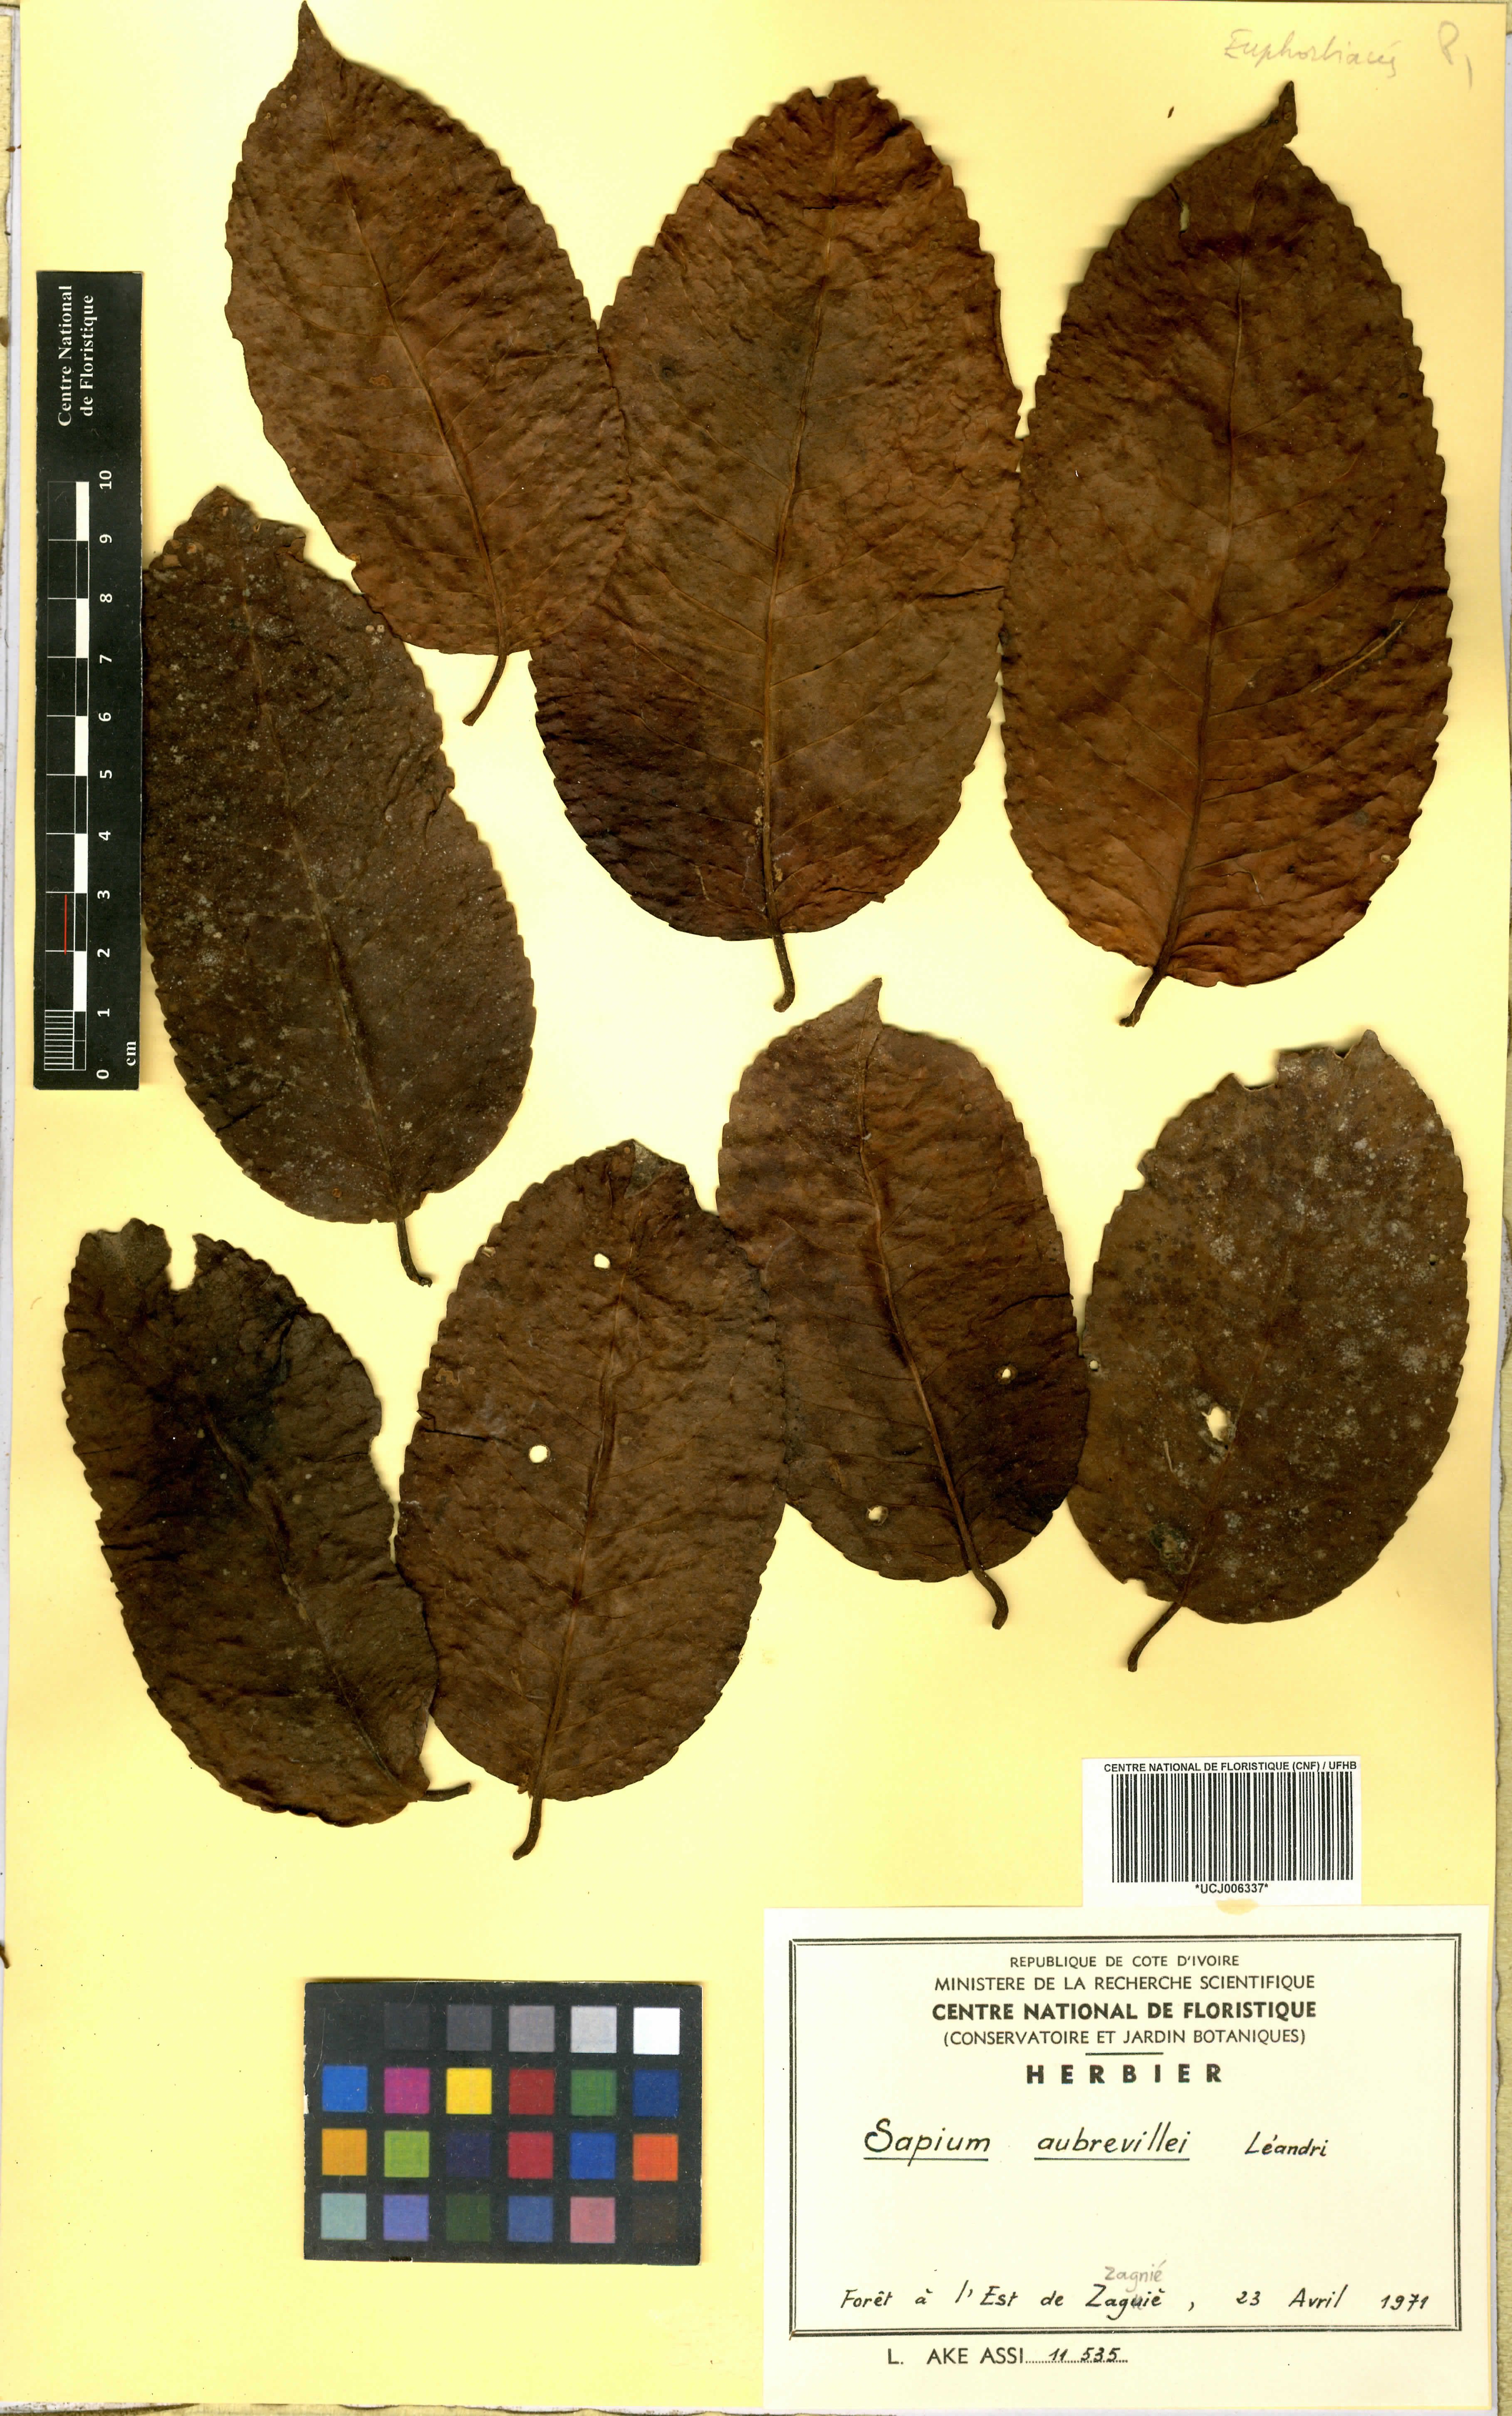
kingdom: Plantae
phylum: Tracheophyta
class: Magnoliopsida
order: Malpighiales
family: Euphorbiaceae
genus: Shirakiopsis
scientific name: Shirakiopsis aubrevillei
